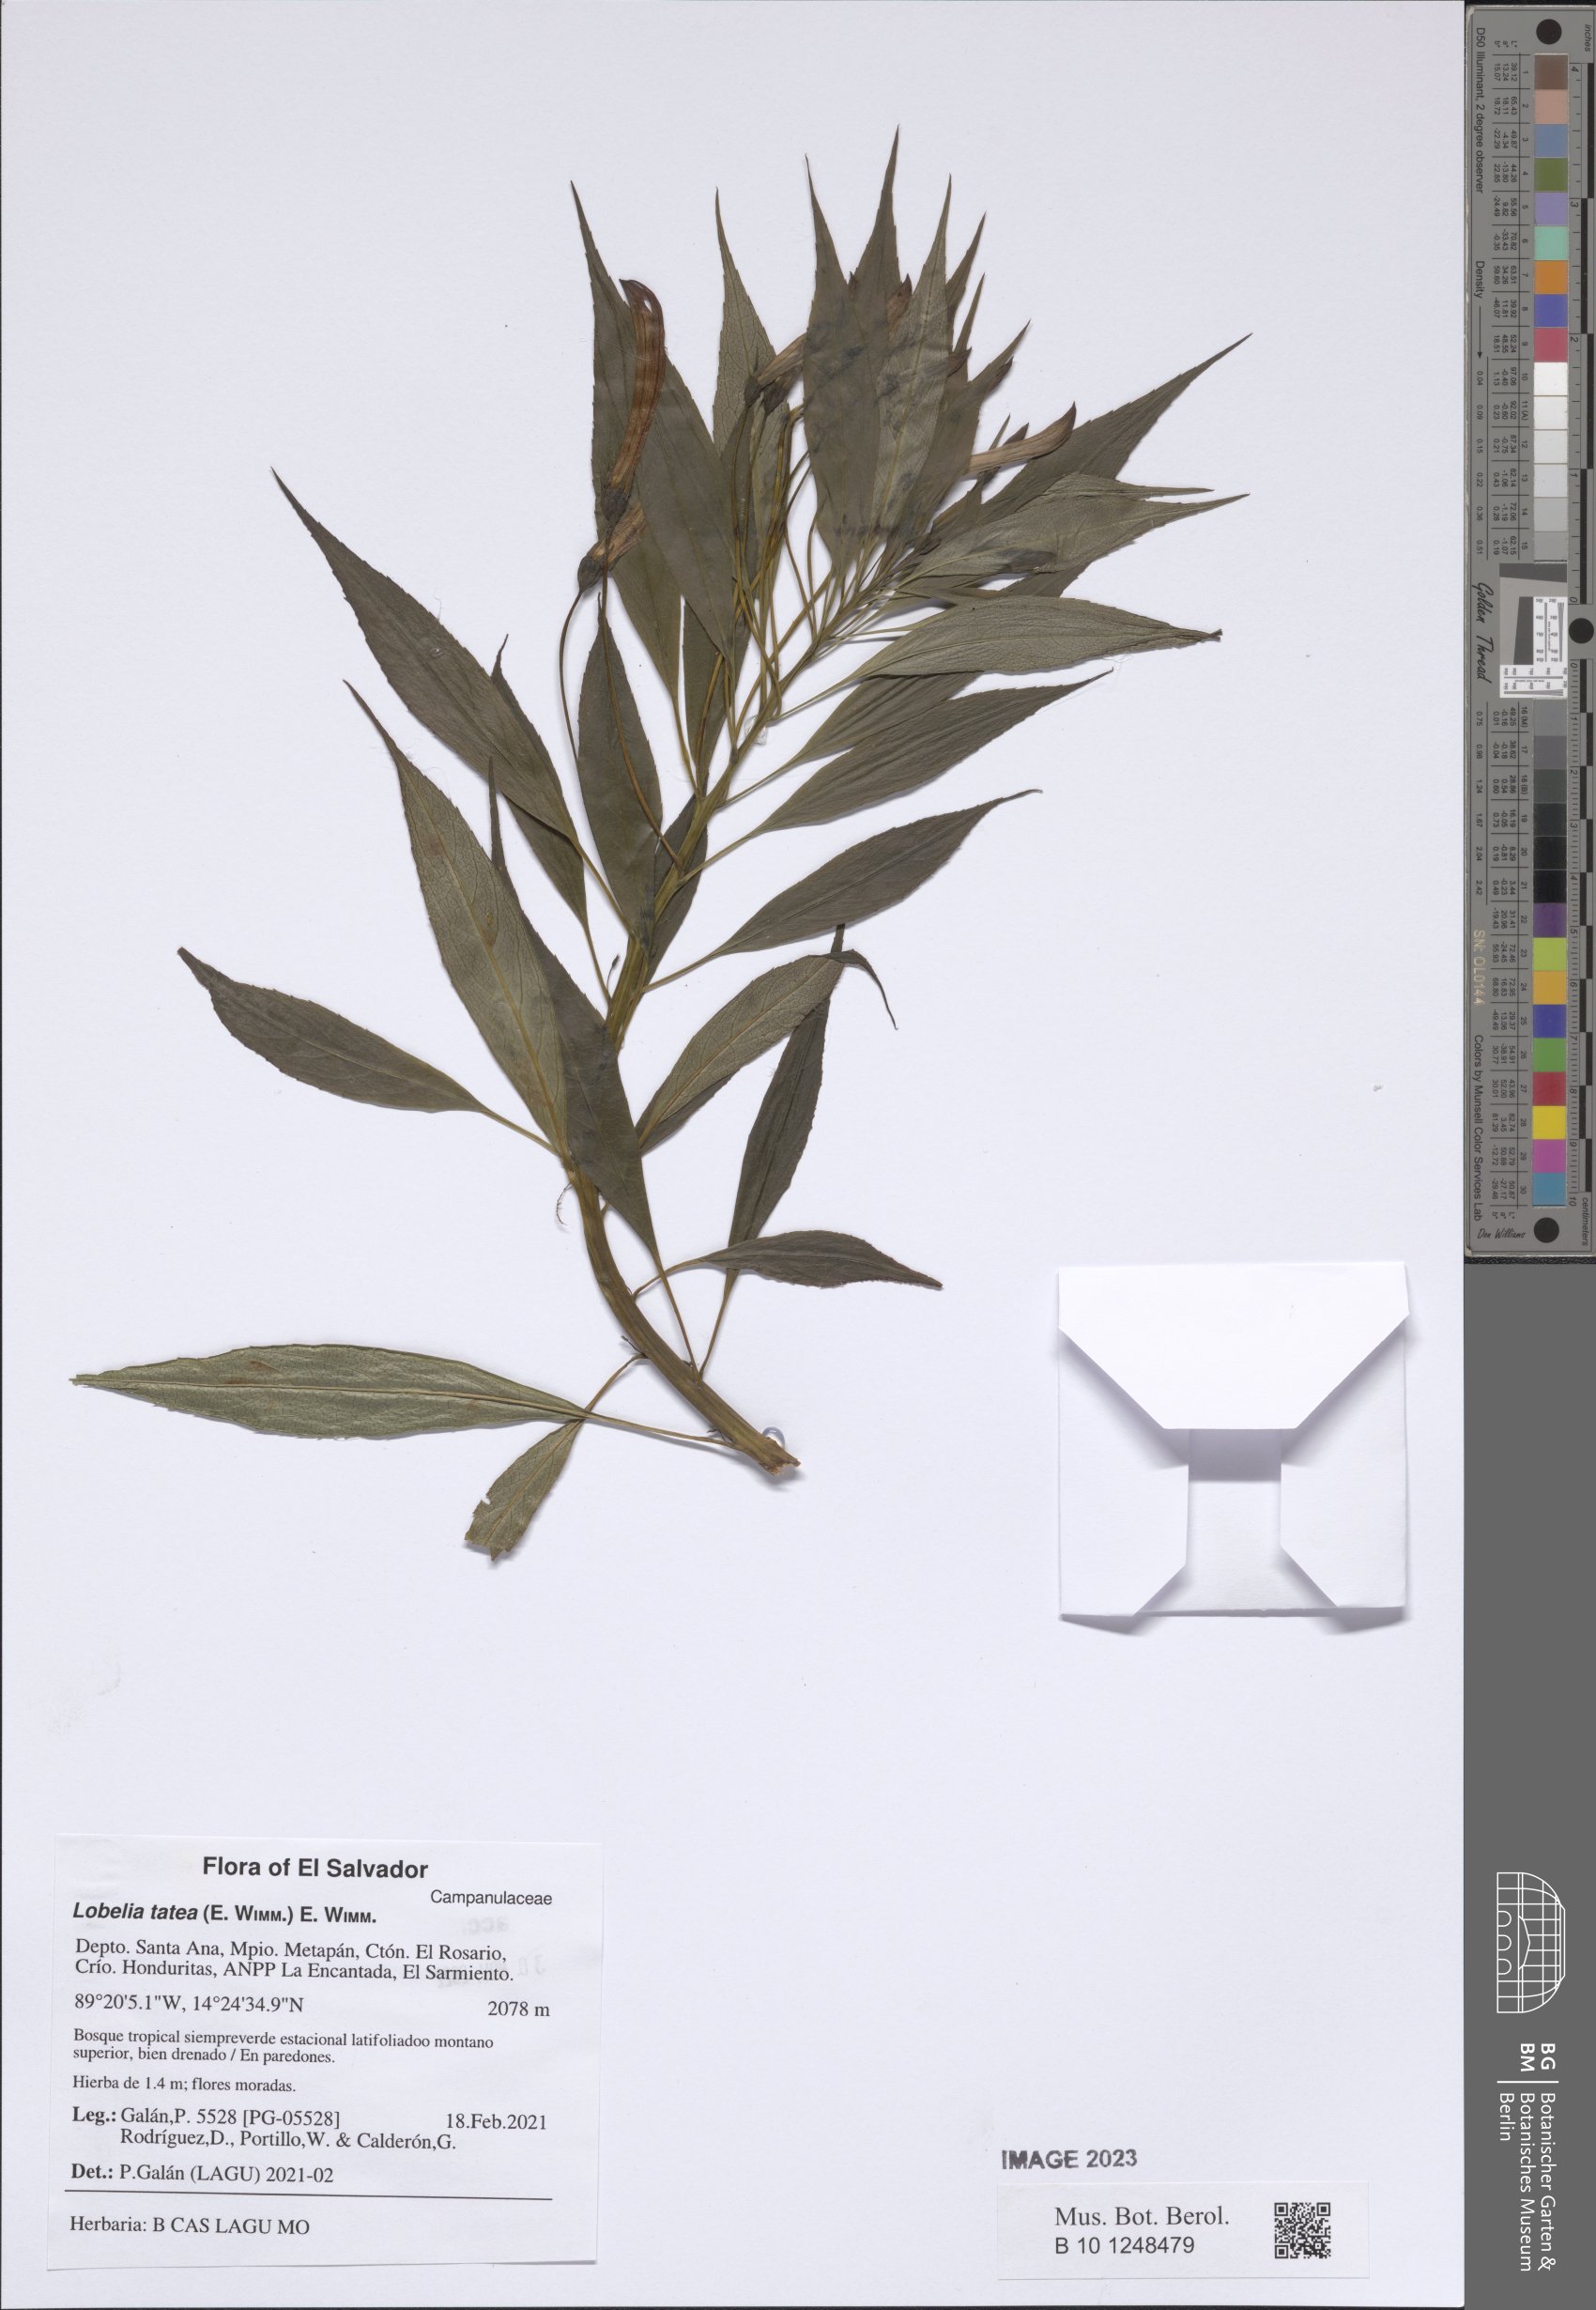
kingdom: Plantae
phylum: Tracheophyta
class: Magnoliopsida
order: Asterales
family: Campanulaceae
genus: Lobelia
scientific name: Lobelia tatea
